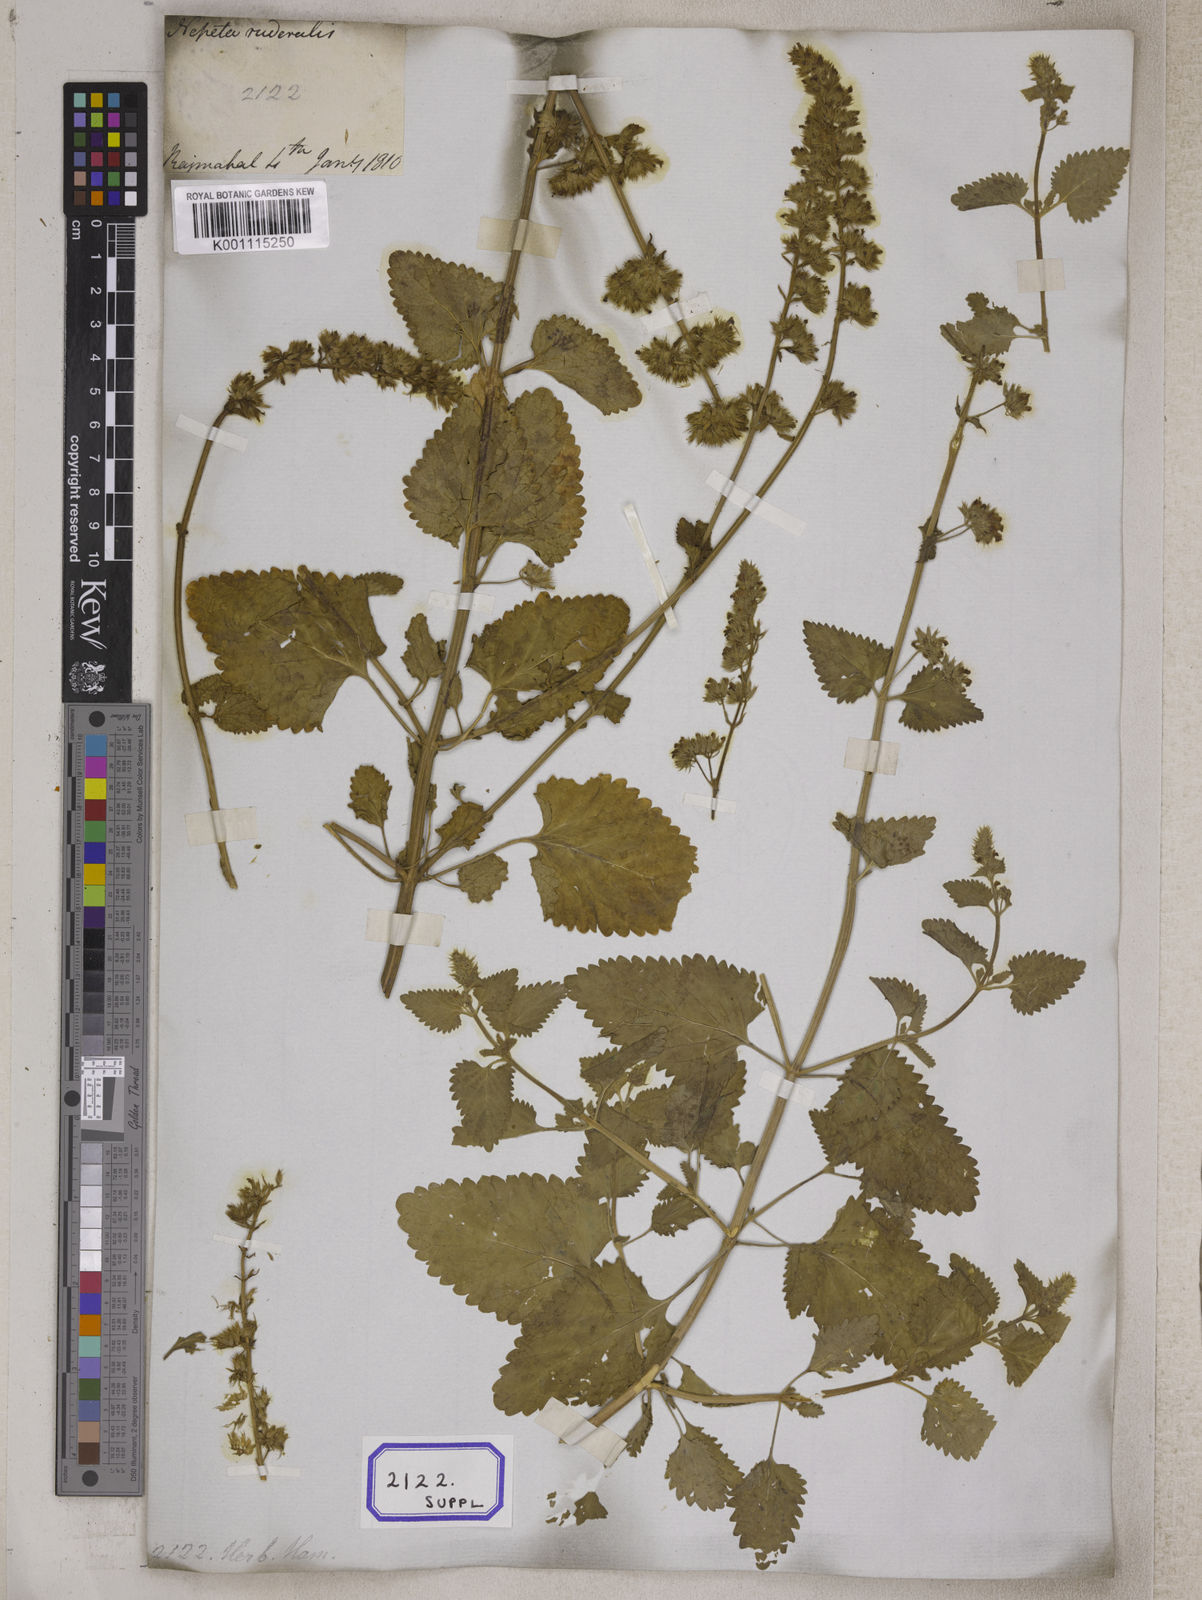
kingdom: Plantae
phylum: Tracheophyta
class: Magnoliopsida
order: Lamiales
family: Lamiaceae
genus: Nepeta
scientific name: Nepeta
